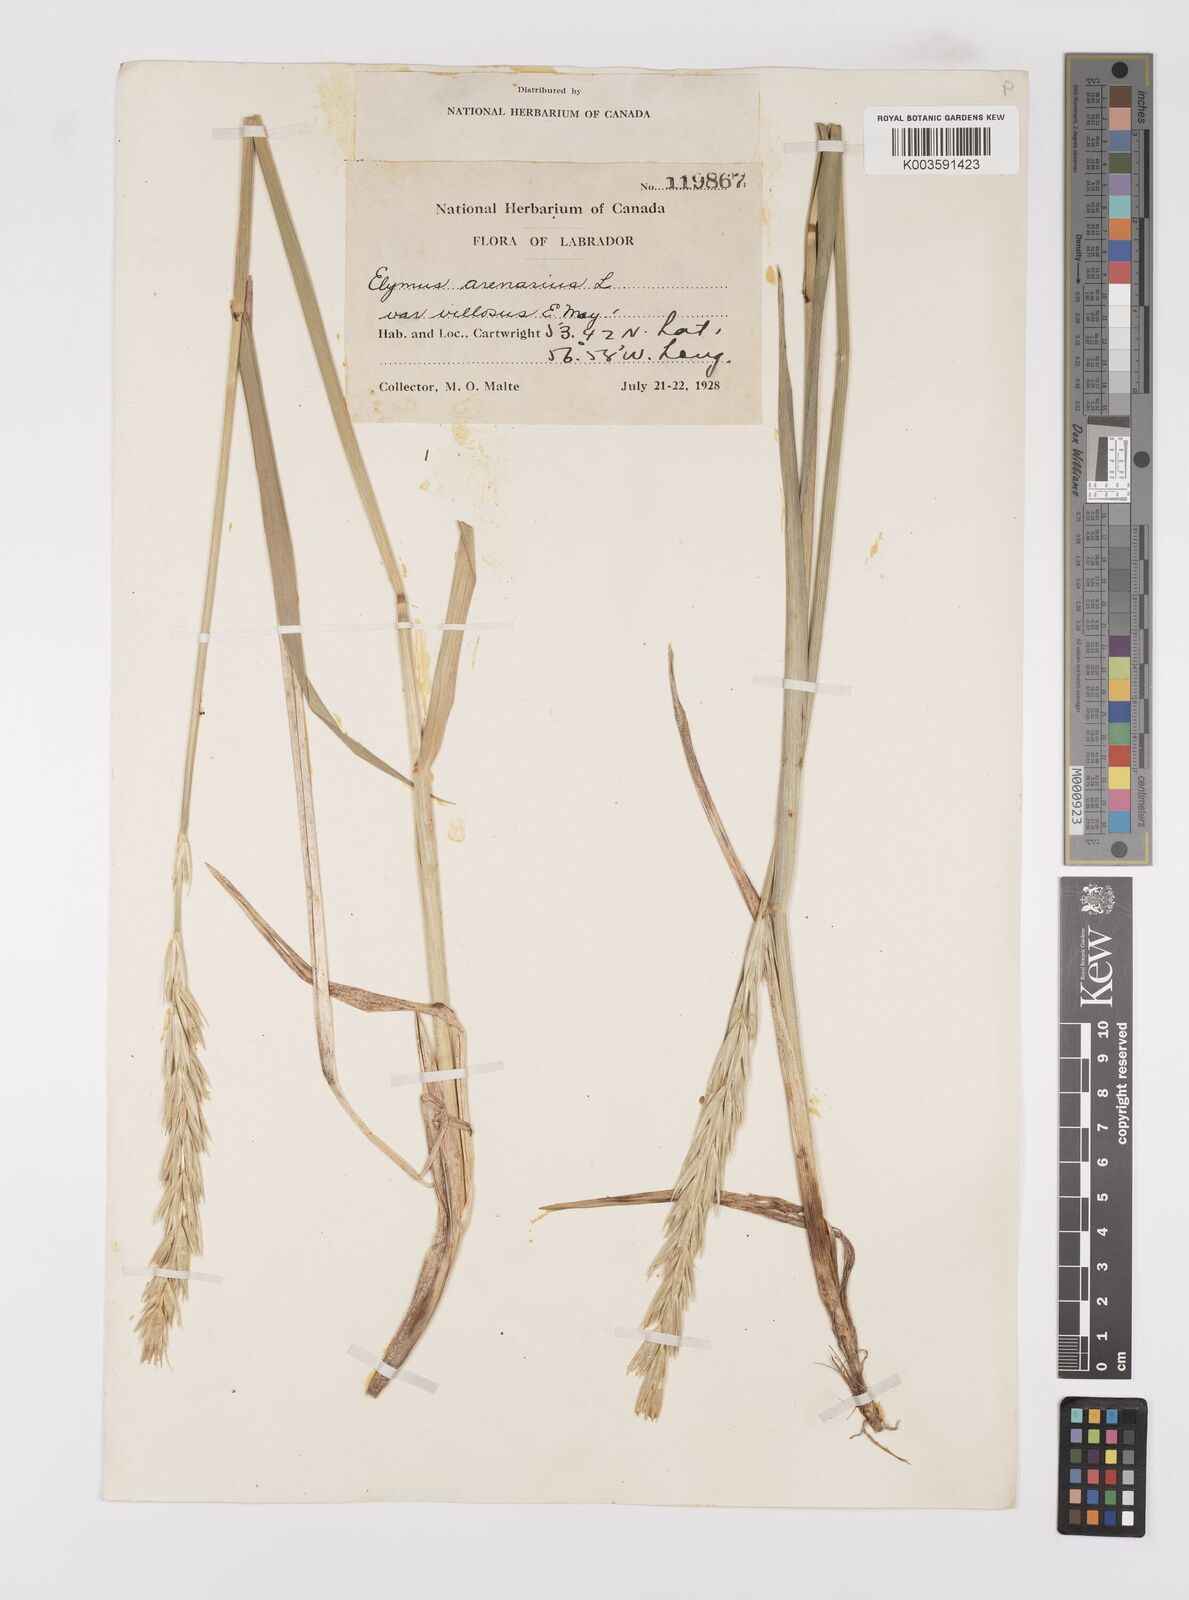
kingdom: Plantae
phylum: Tracheophyta
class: Liliopsida
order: Poales
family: Poaceae
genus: Leymus
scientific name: Leymus mollis
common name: American dune grass
